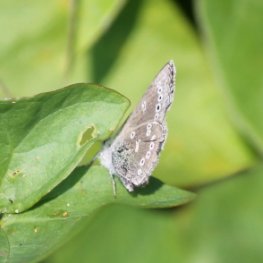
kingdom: Animalia
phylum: Arthropoda
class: Insecta
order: Lepidoptera
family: Lycaenidae
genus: Glaucopsyche
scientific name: Glaucopsyche lygdamus
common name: Silvery Blue
